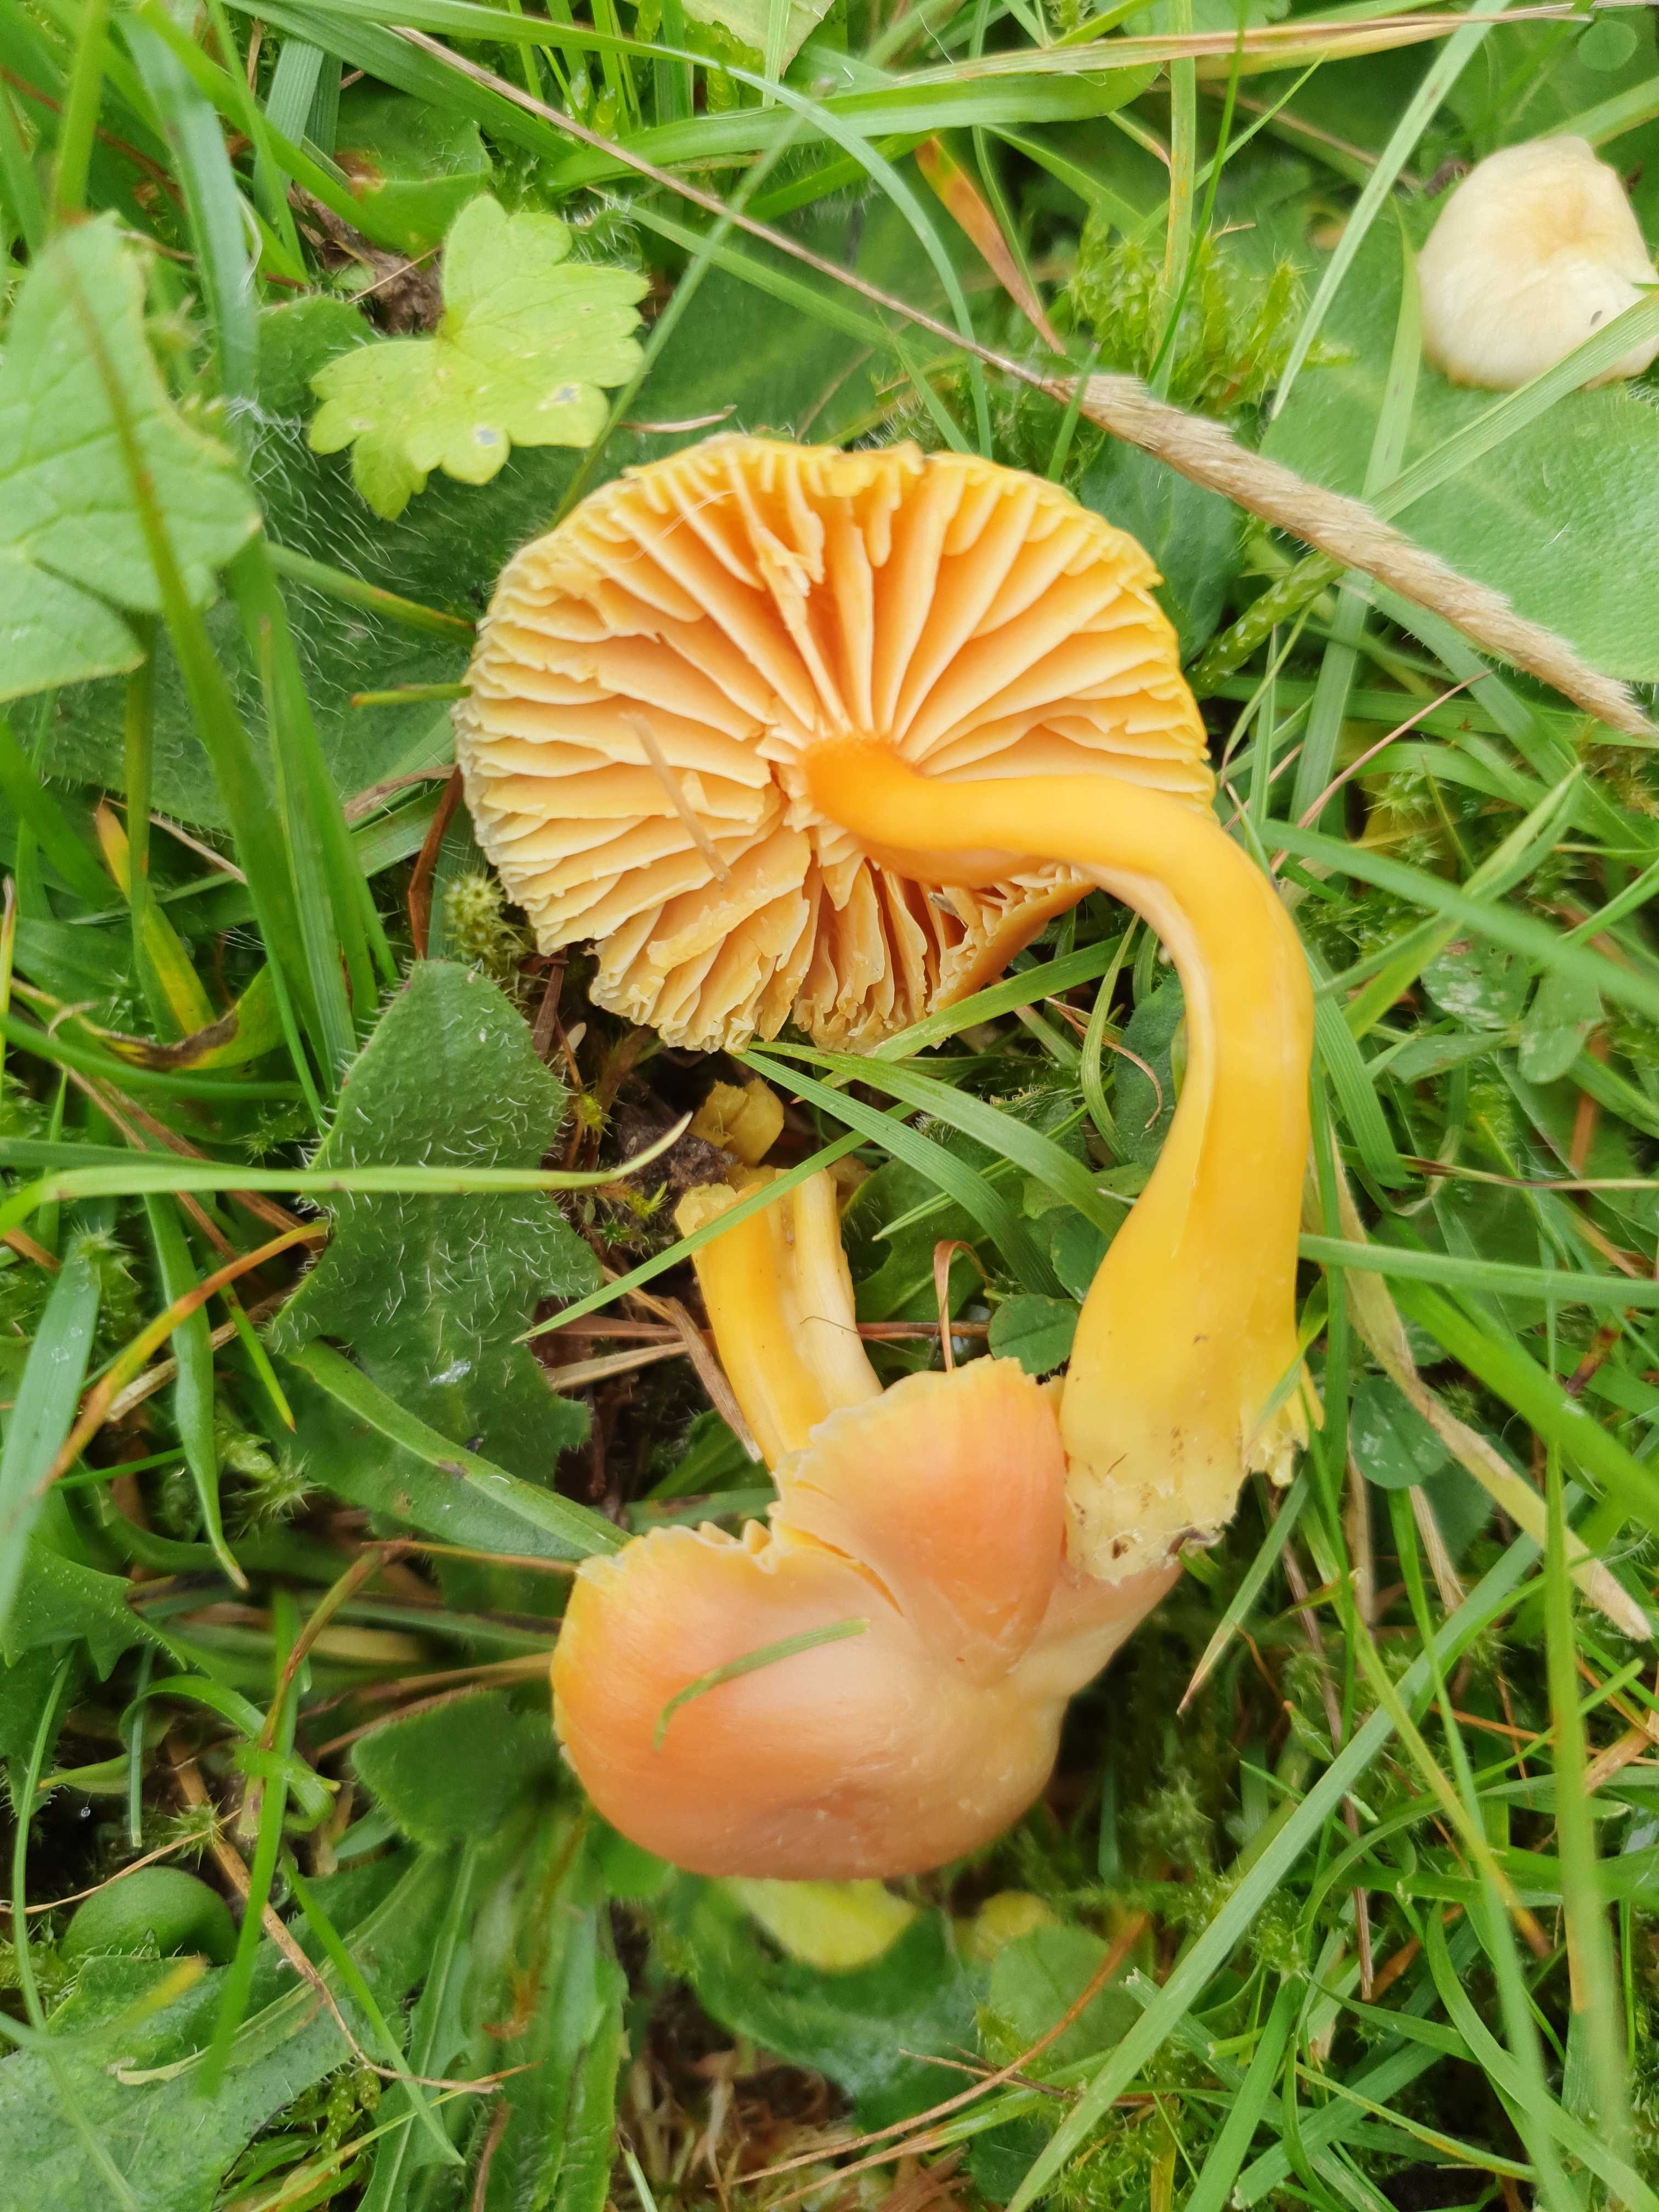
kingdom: Fungi
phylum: Basidiomycota
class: Agaricomycetes
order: Agaricales
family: Hygrophoraceae
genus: Hygrocybe
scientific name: Hygrocybe reidii
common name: honning-vokshat
